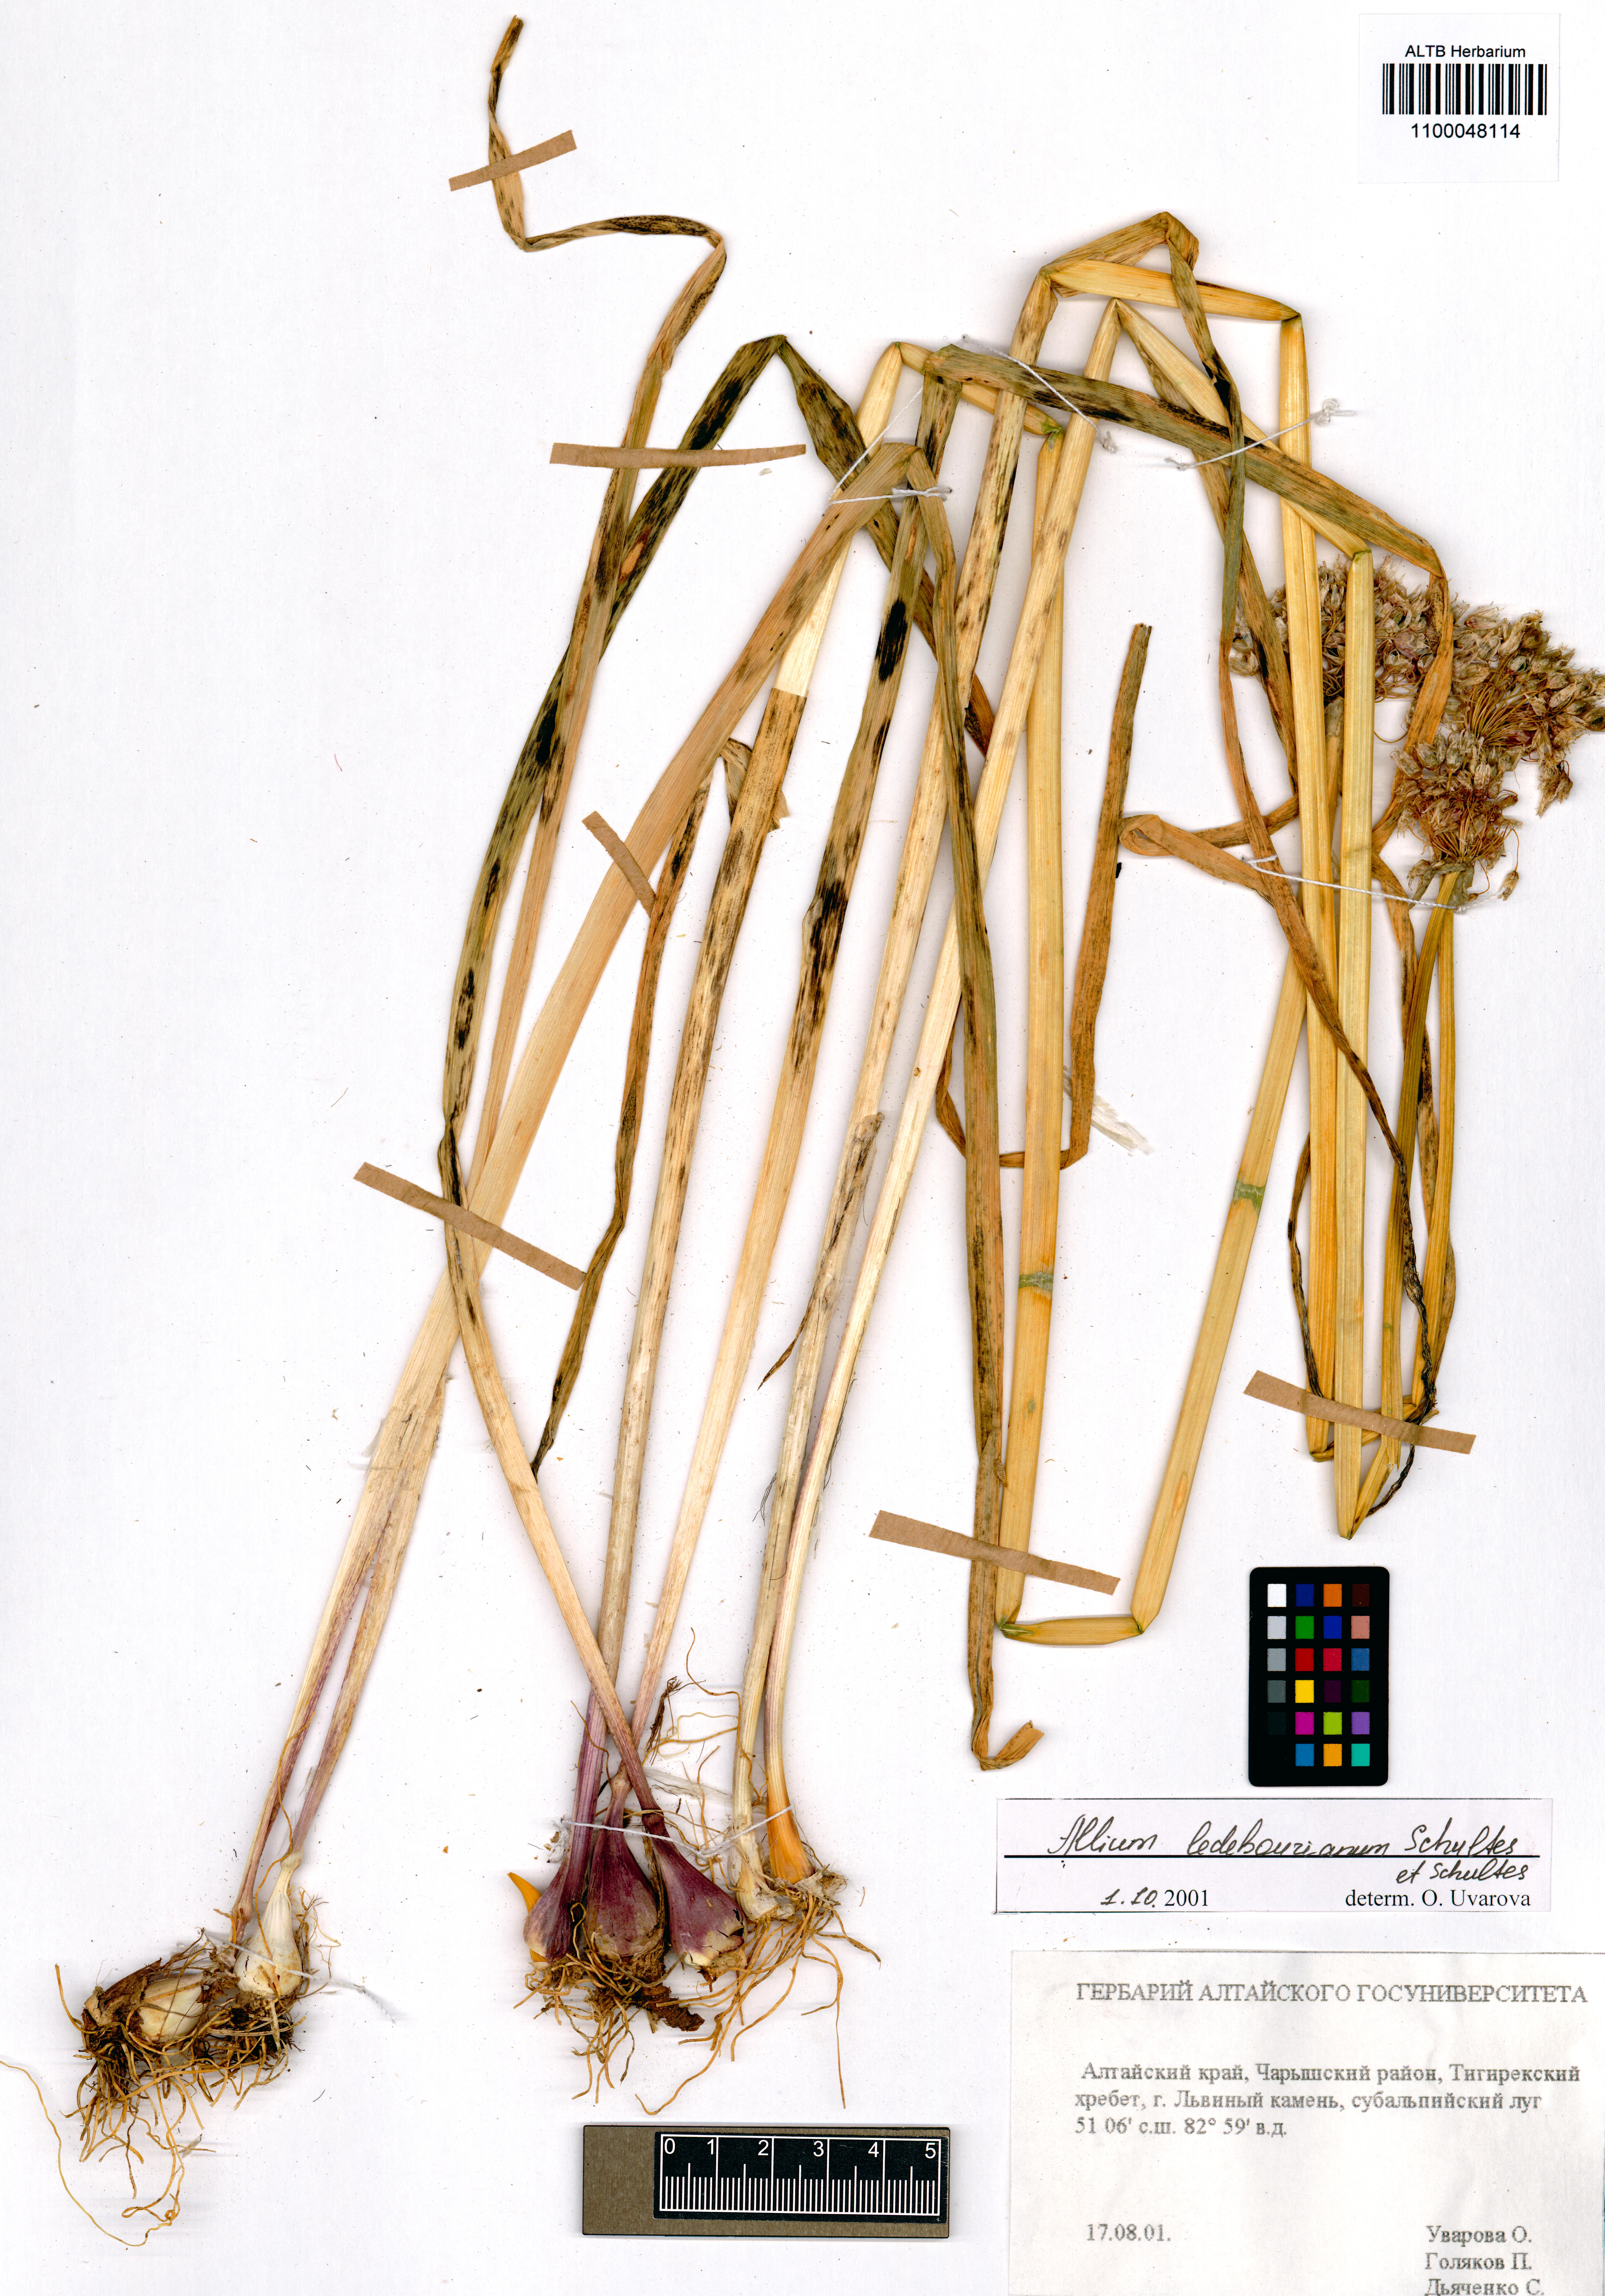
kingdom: Plantae
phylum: Tracheophyta
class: Liliopsida
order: Asparagales
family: Amaryllidaceae
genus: Allium
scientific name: Allium ledebourianum
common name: Ledebour chive
